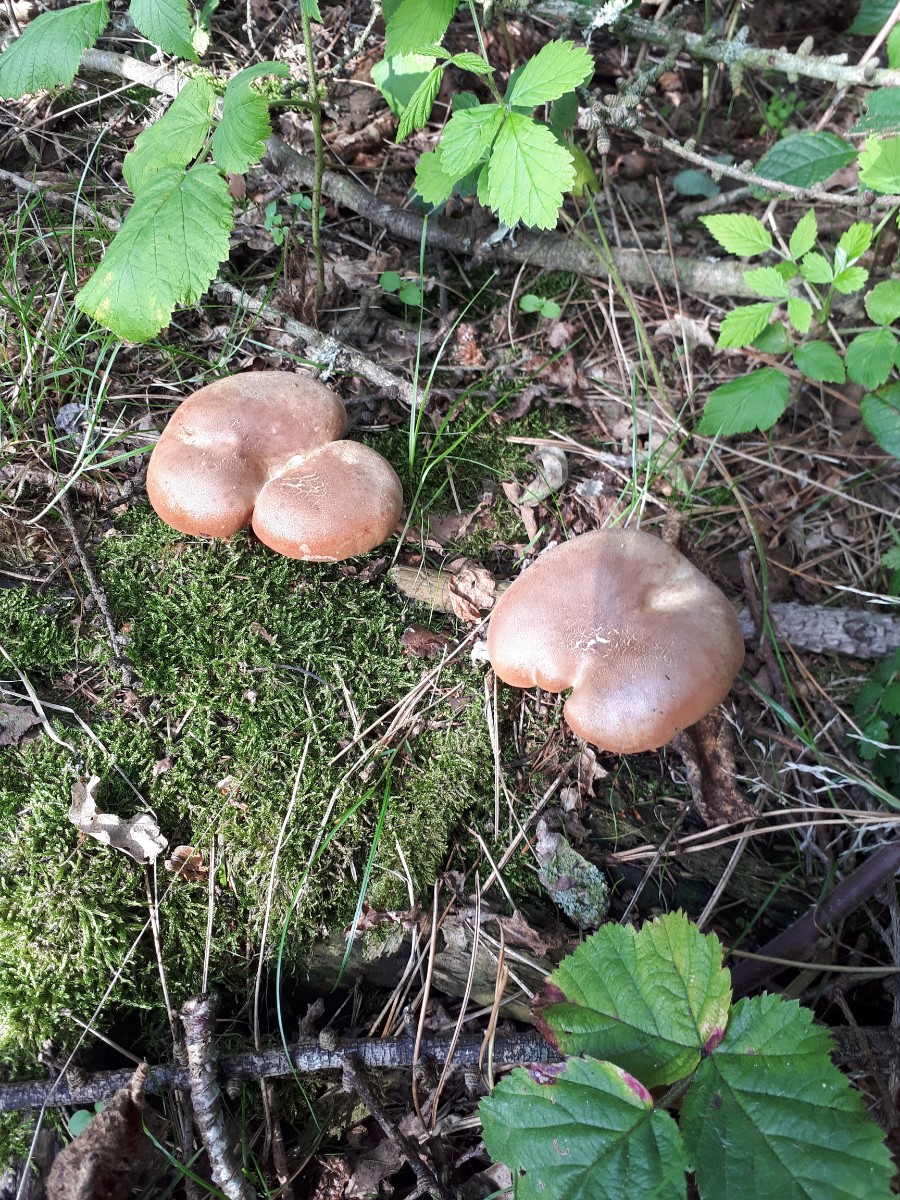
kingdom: Fungi
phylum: Basidiomycota
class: Agaricomycetes
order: Boletales
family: Tapinellaceae
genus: Tapinella
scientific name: Tapinella atrotomentosa
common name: sortfiltet viftesvamp
